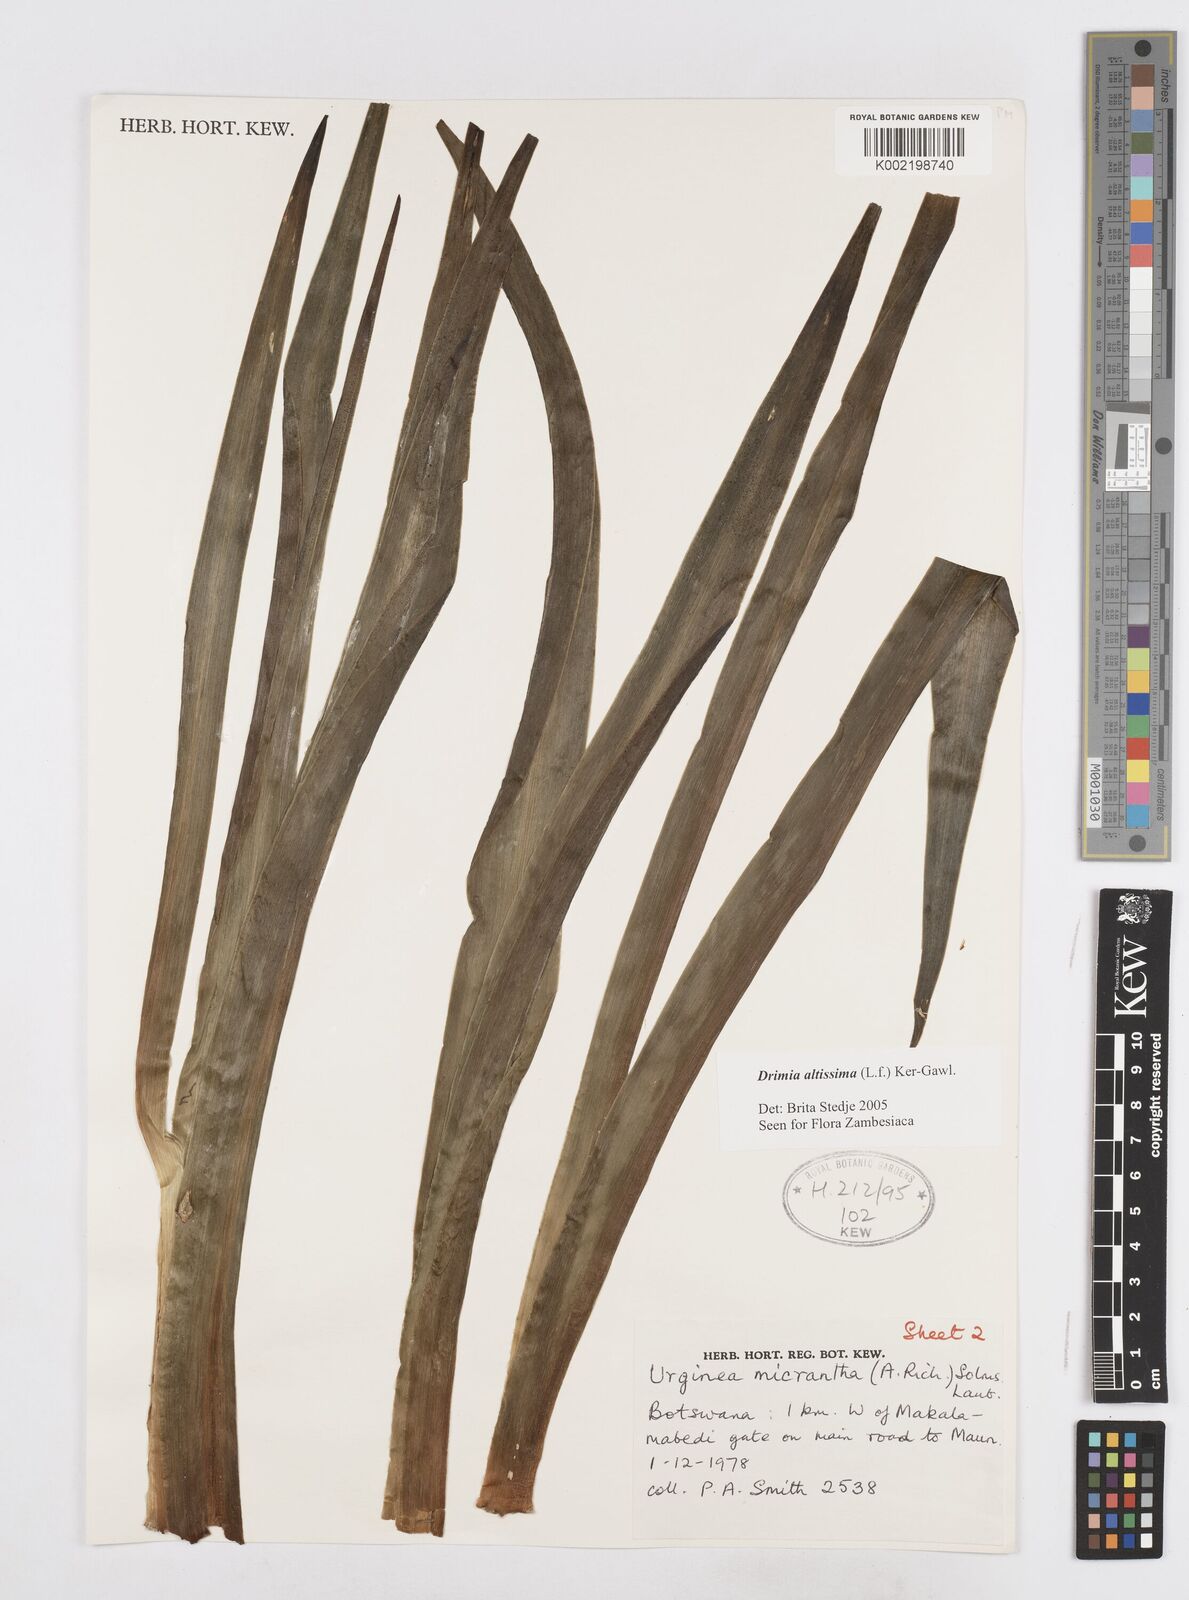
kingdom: Plantae
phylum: Tracheophyta
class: Liliopsida
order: Asparagales
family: Asparagaceae
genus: Drimia
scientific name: Drimia altissima
